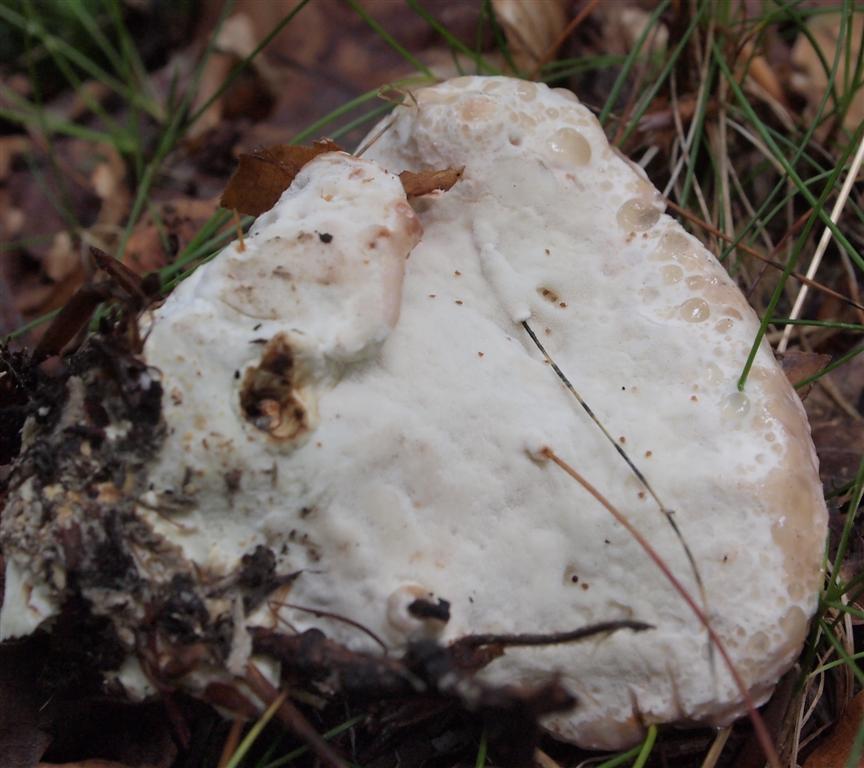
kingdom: Fungi
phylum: Basidiomycota
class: Agaricomycetes
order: Polyporales
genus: Calcipostia
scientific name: Calcipostia guttulata
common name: dråbe-kødporesvamp
